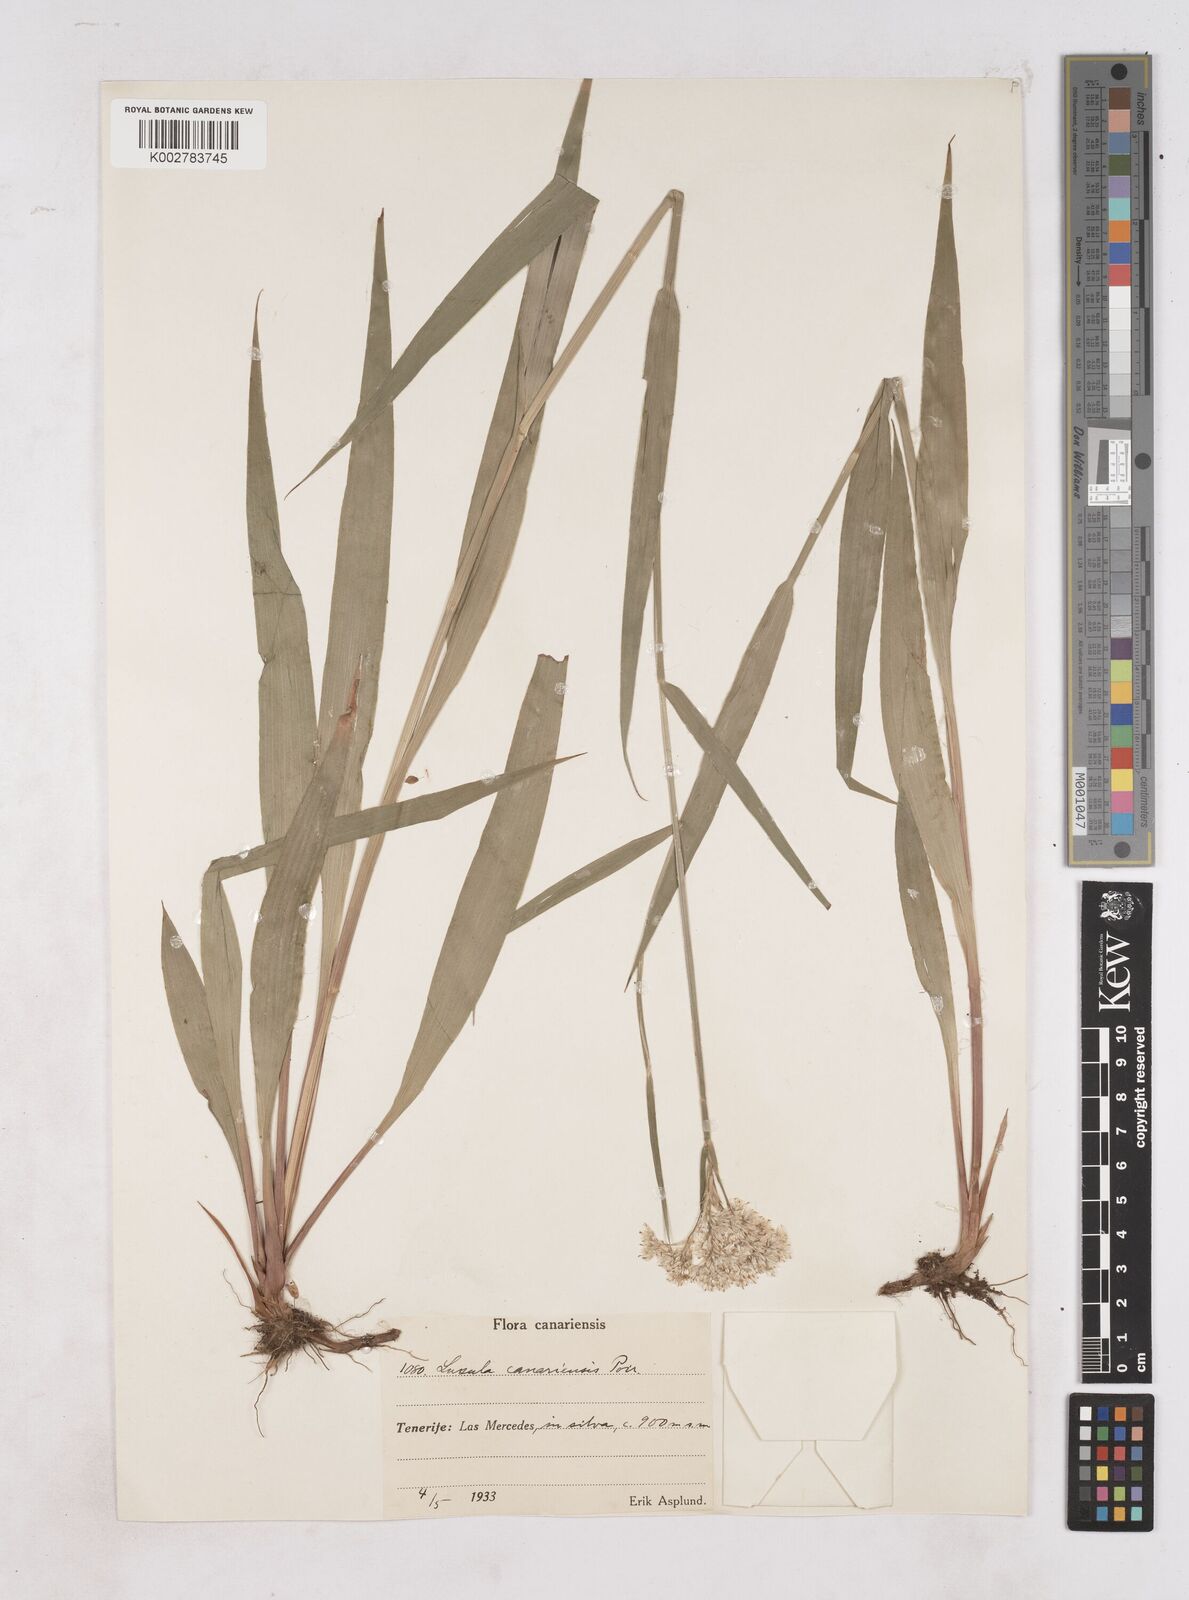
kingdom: Plantae
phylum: Tracheophyta
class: Liliopsida
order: Poales
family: Juncaceae
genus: Luzula
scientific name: Luzula canariensis
